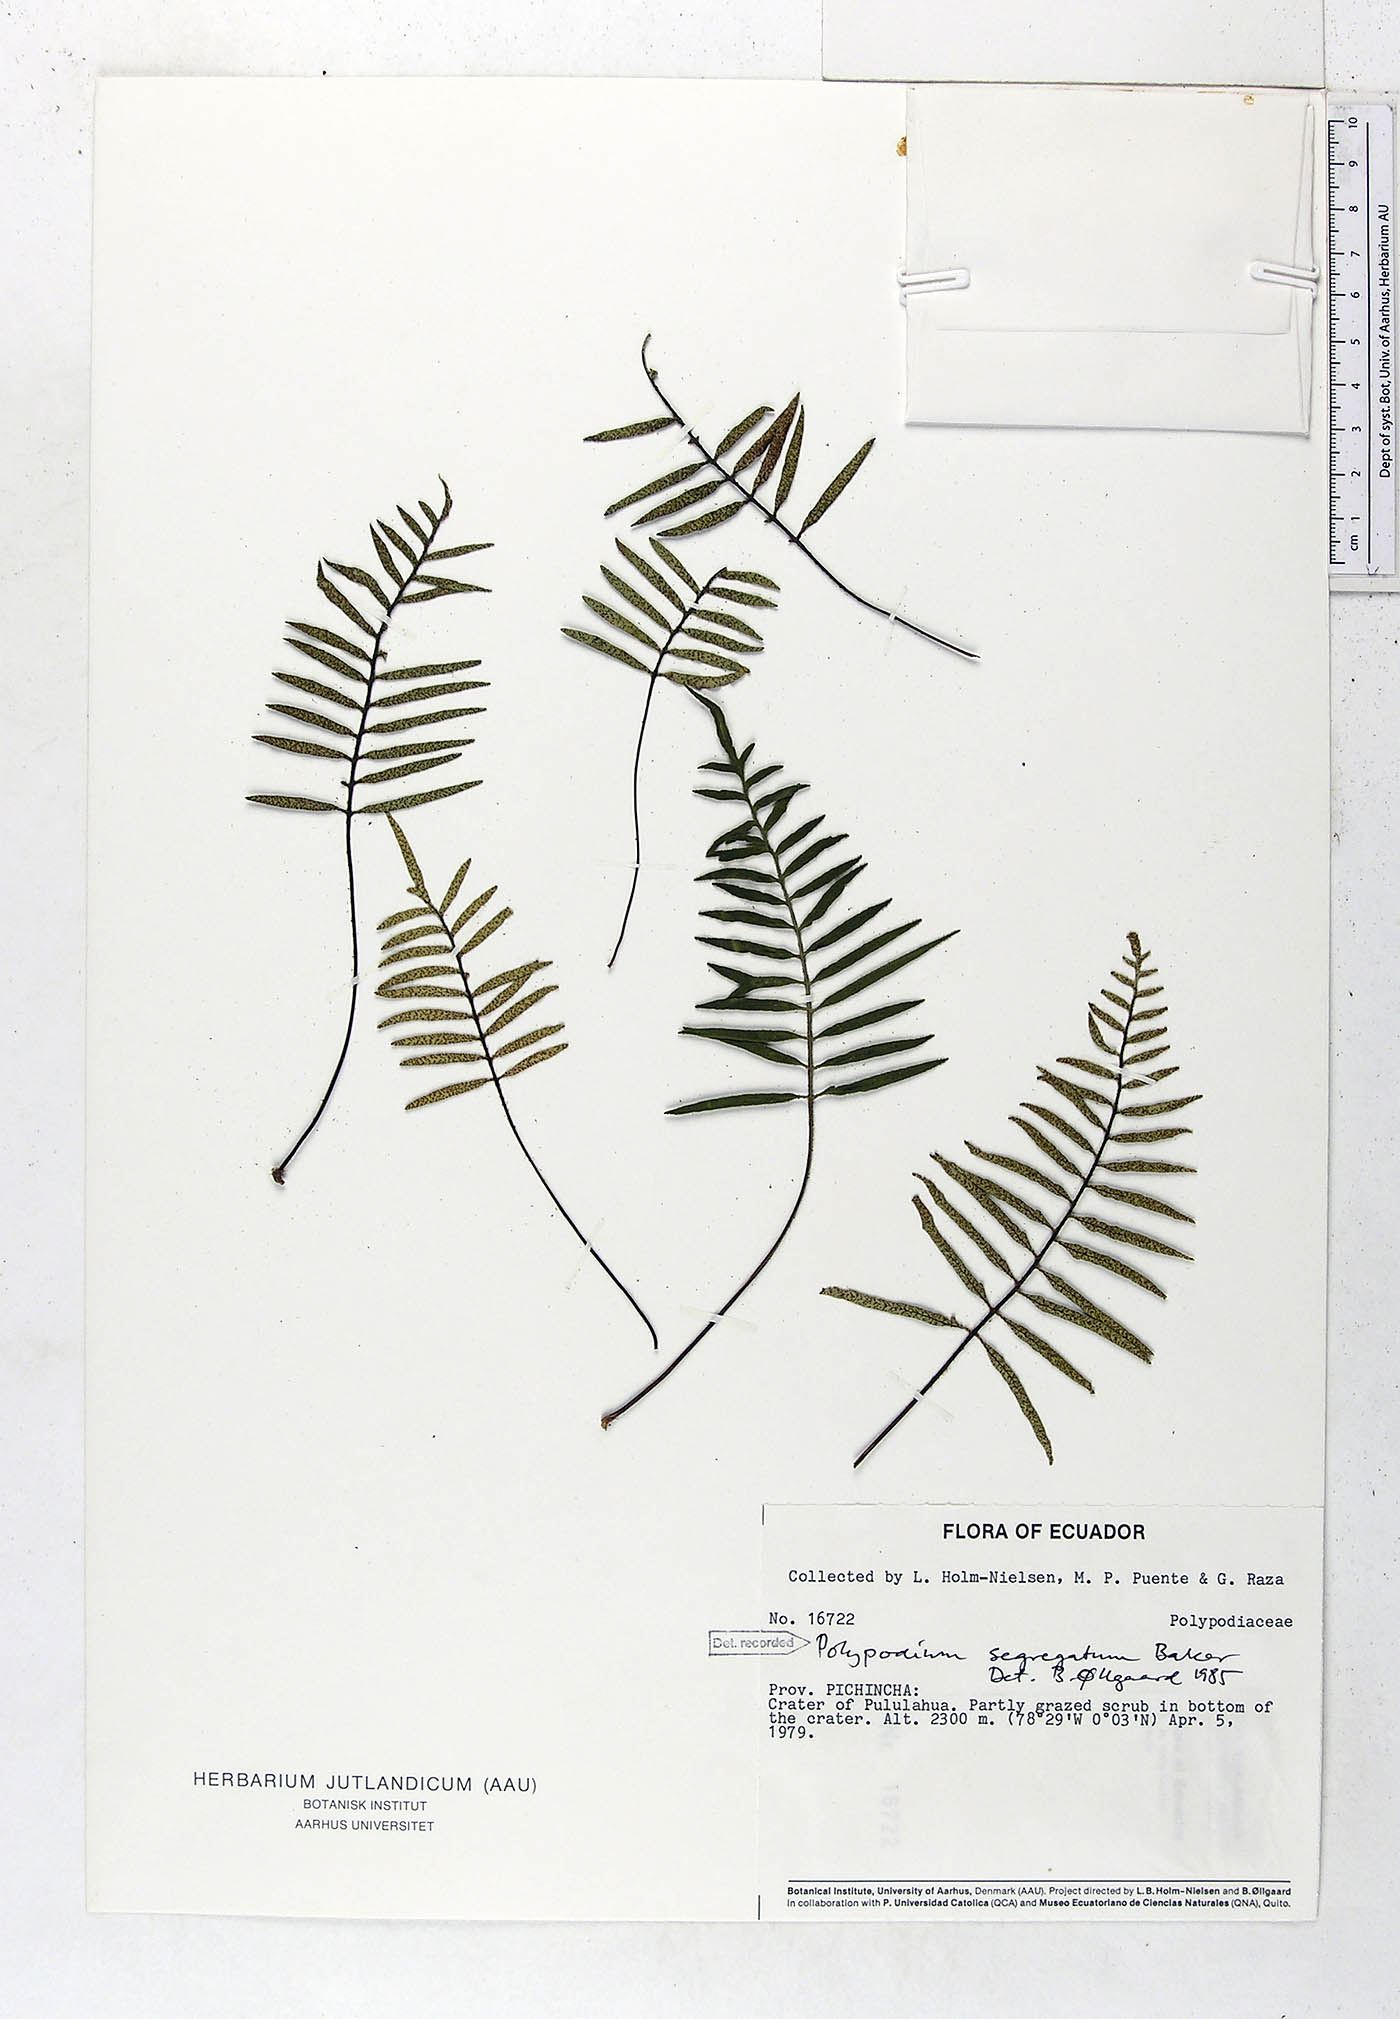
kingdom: Plantae
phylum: Tracheophyta
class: Polypodiopsida
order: Polypodiales
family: Polypodiaceae
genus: Pleopeltis
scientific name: Pleopeltis segregata
